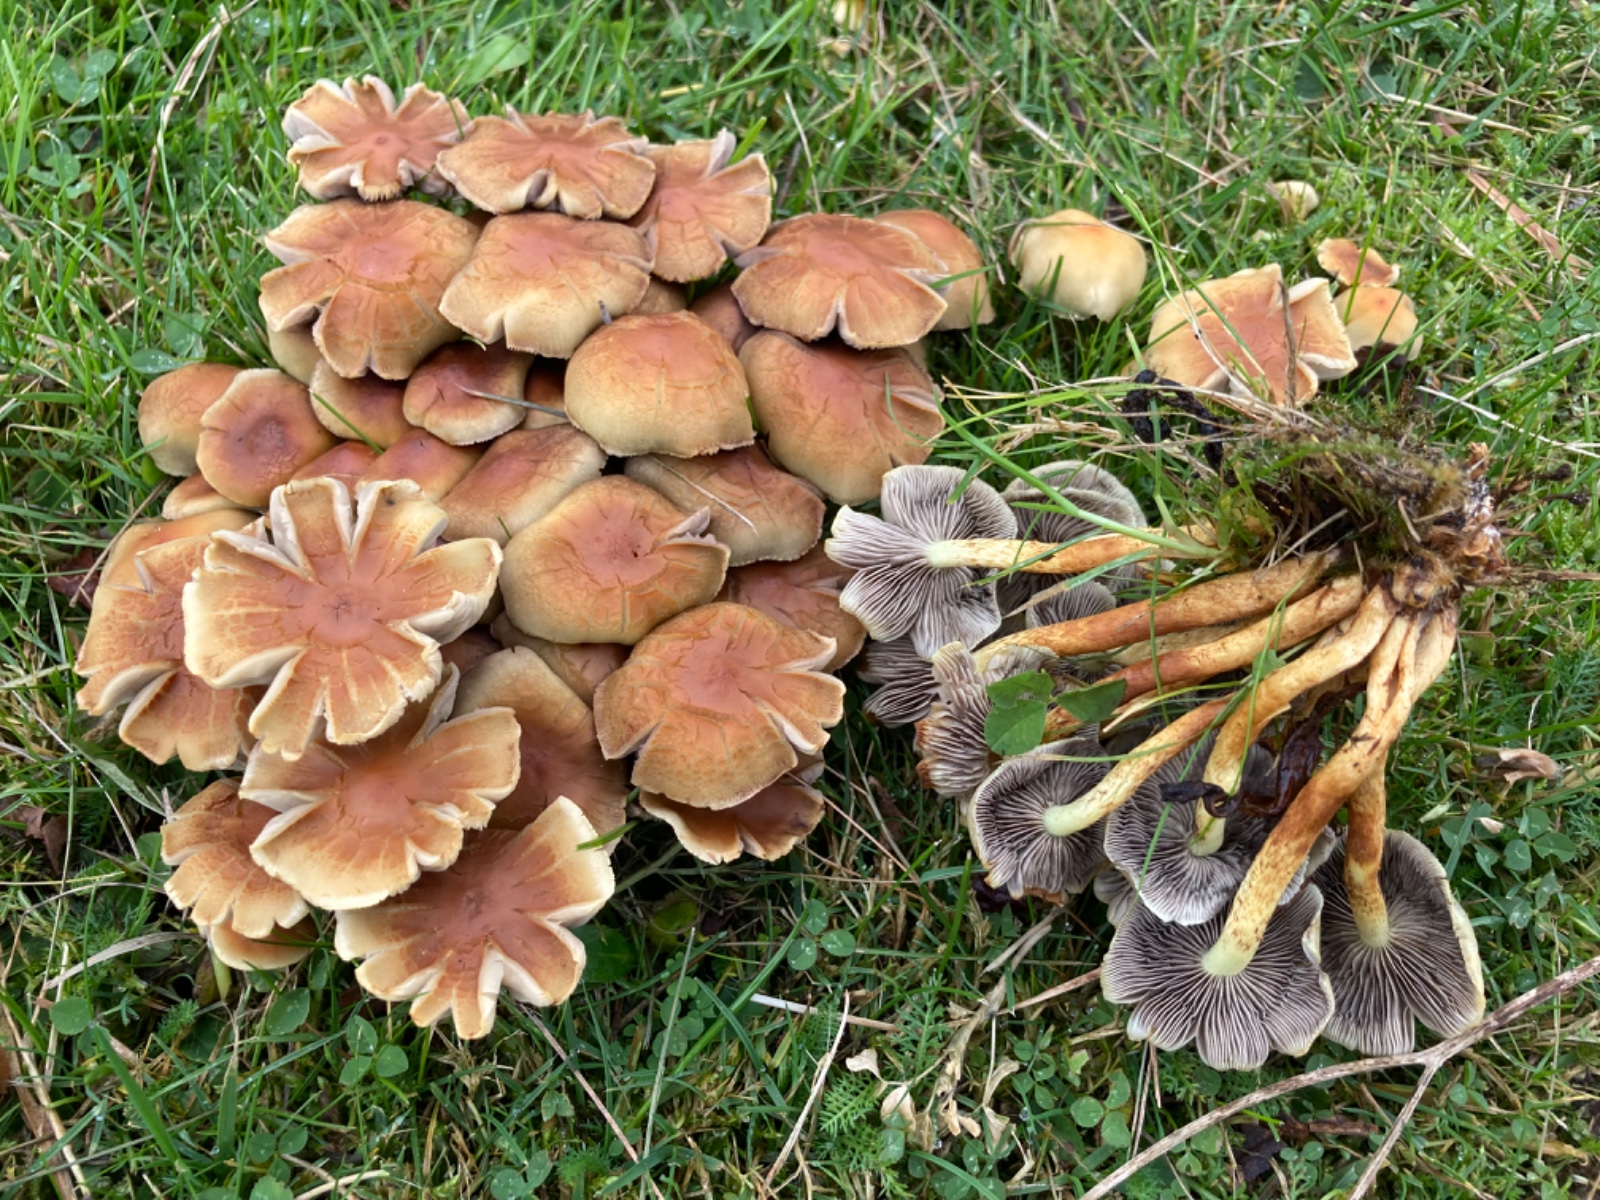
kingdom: Fungi
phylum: Basidiomycota
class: Agaricomycetes
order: Agaricales
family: Strophariaceae
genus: Hypholoma
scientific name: Hypholoma fasciculare
